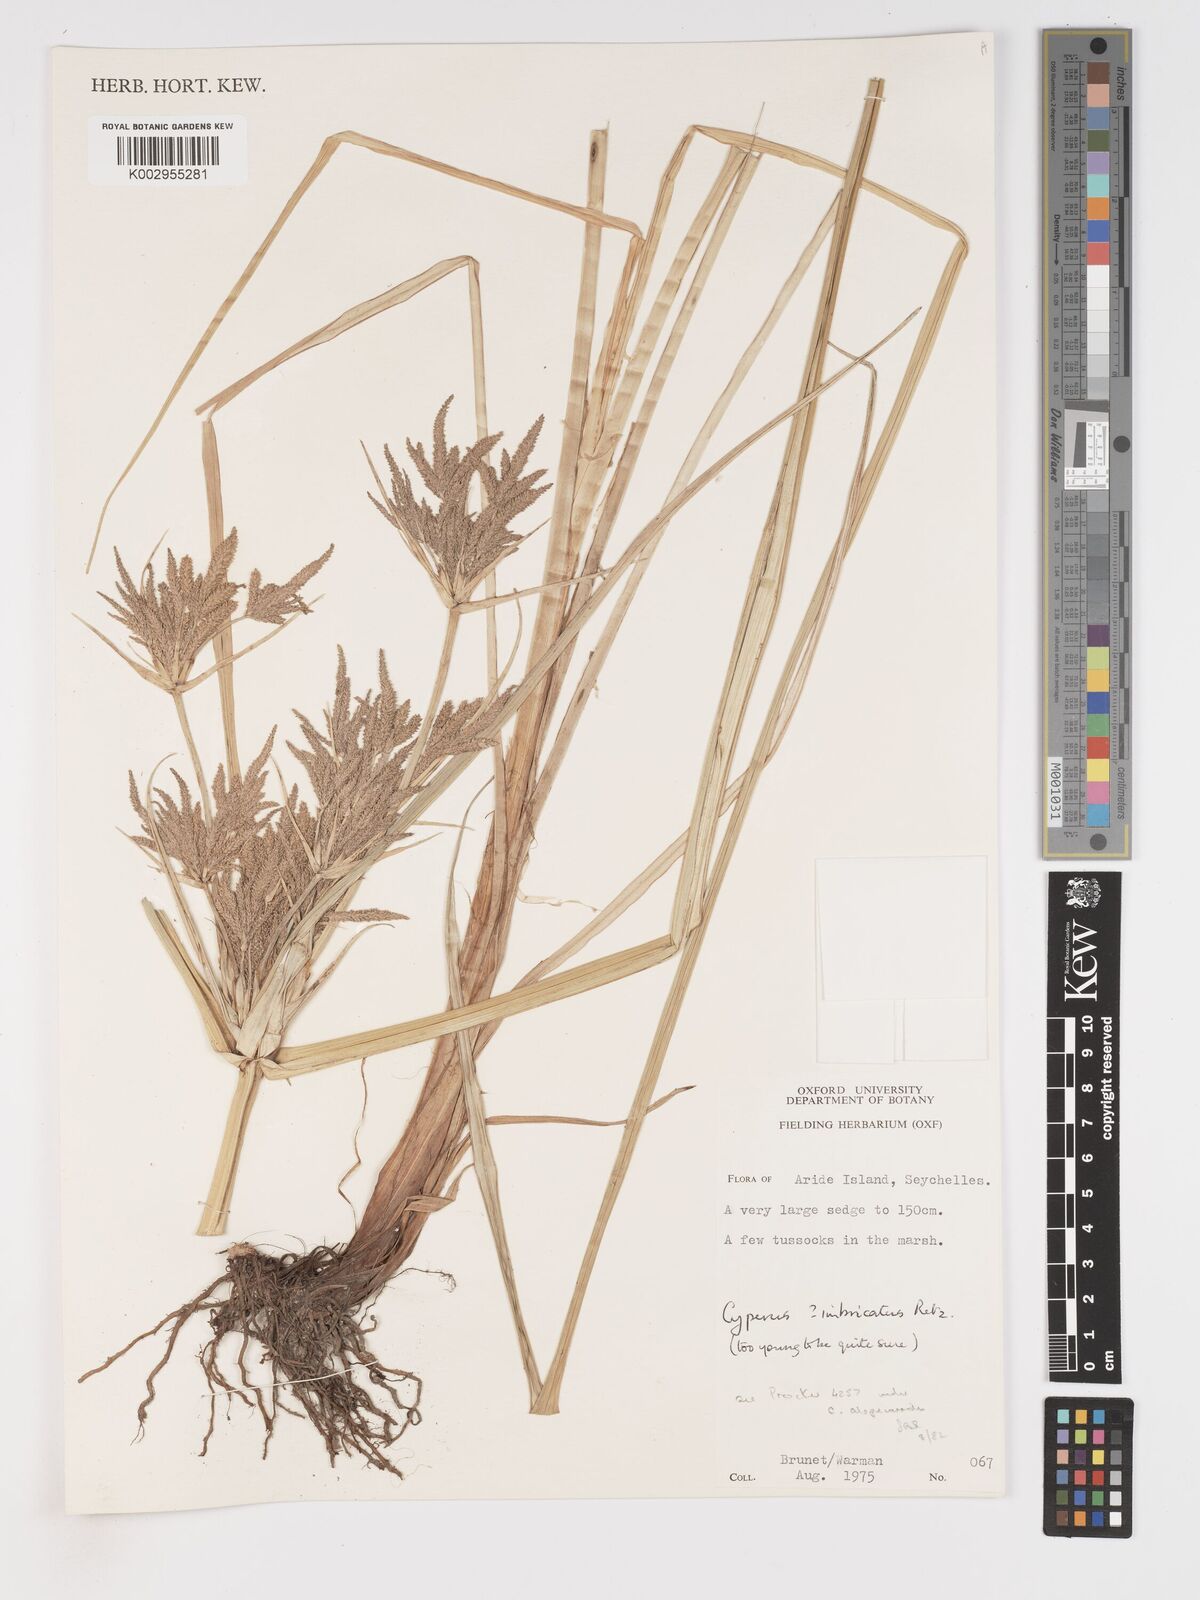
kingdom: Plantae
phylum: Tracheophyta
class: Liliopsida
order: Poales
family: Cyperaceae
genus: Cyperus
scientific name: Cyperus imbricatus
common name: Shingle flatsedge
